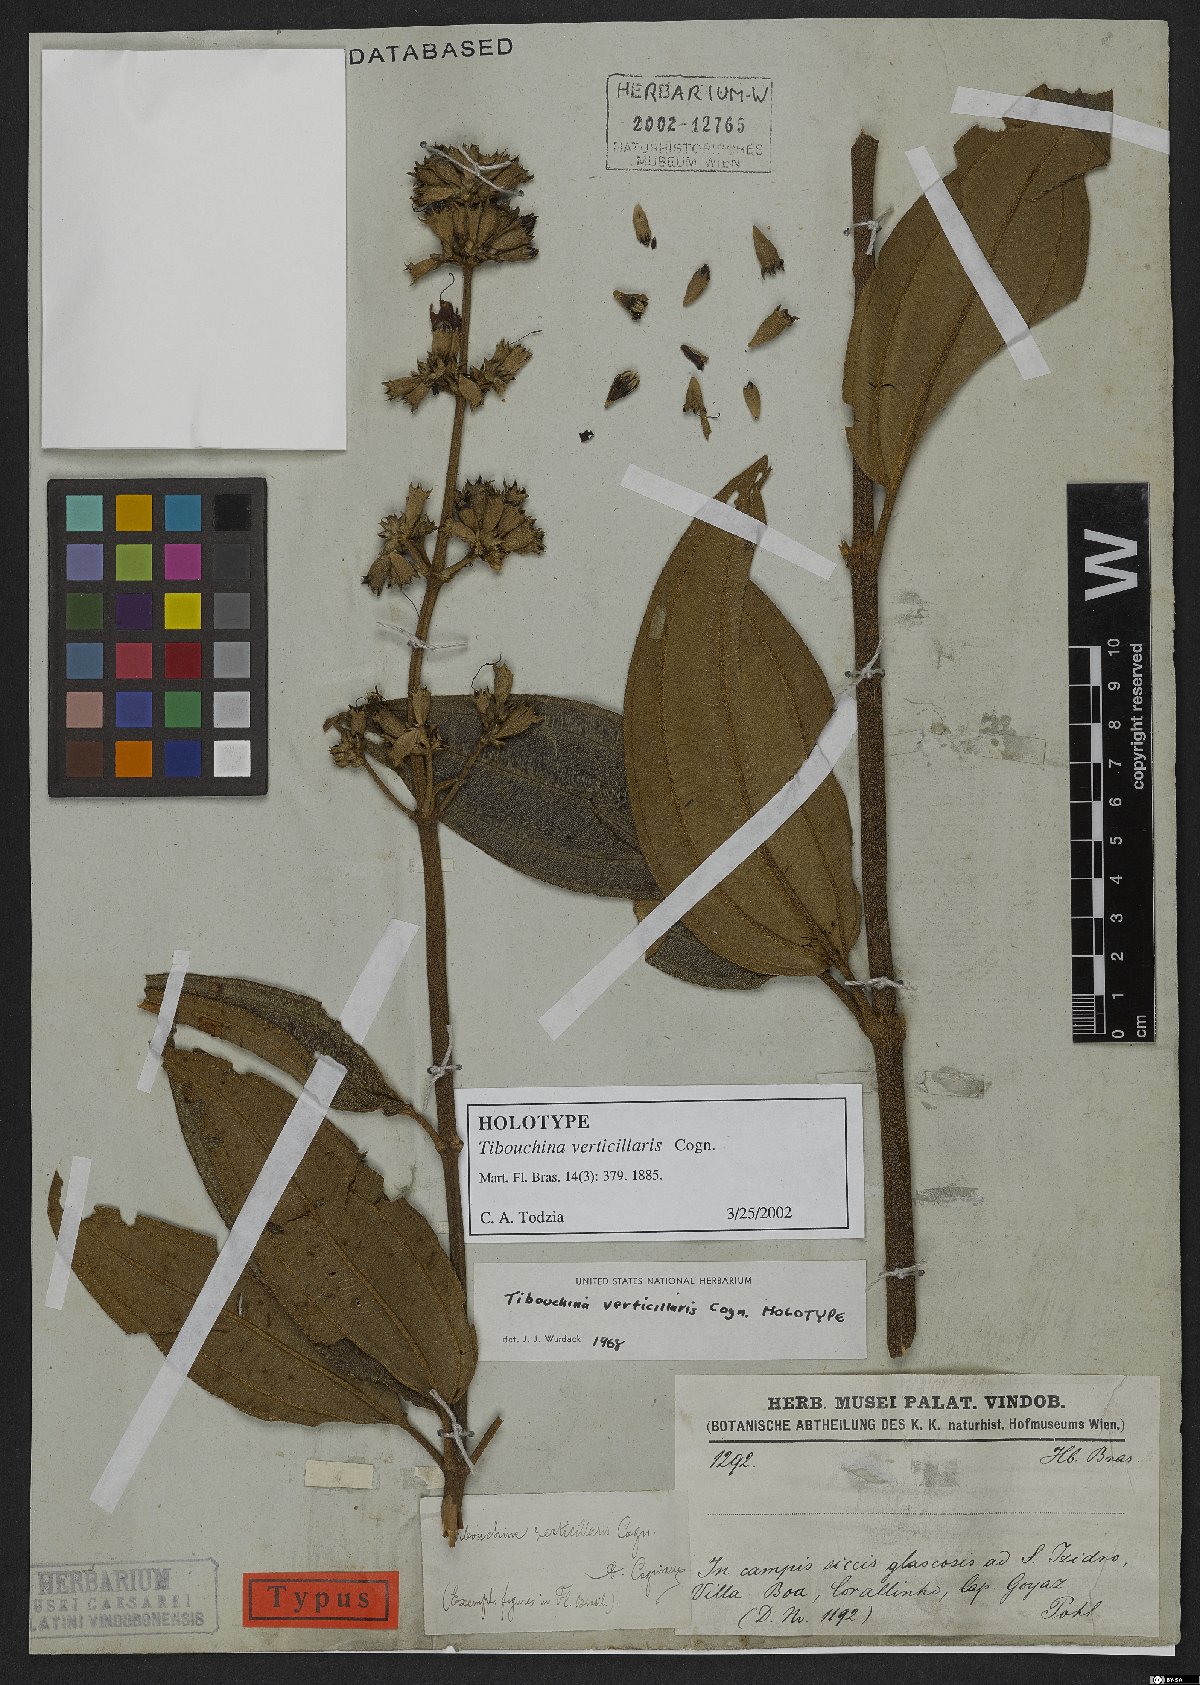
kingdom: Plantae
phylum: Tracheophyta
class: Magnoliopsida
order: Myrtales
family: Melastomataceae
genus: Tibouchina
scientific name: Tibouchina verticillaris
